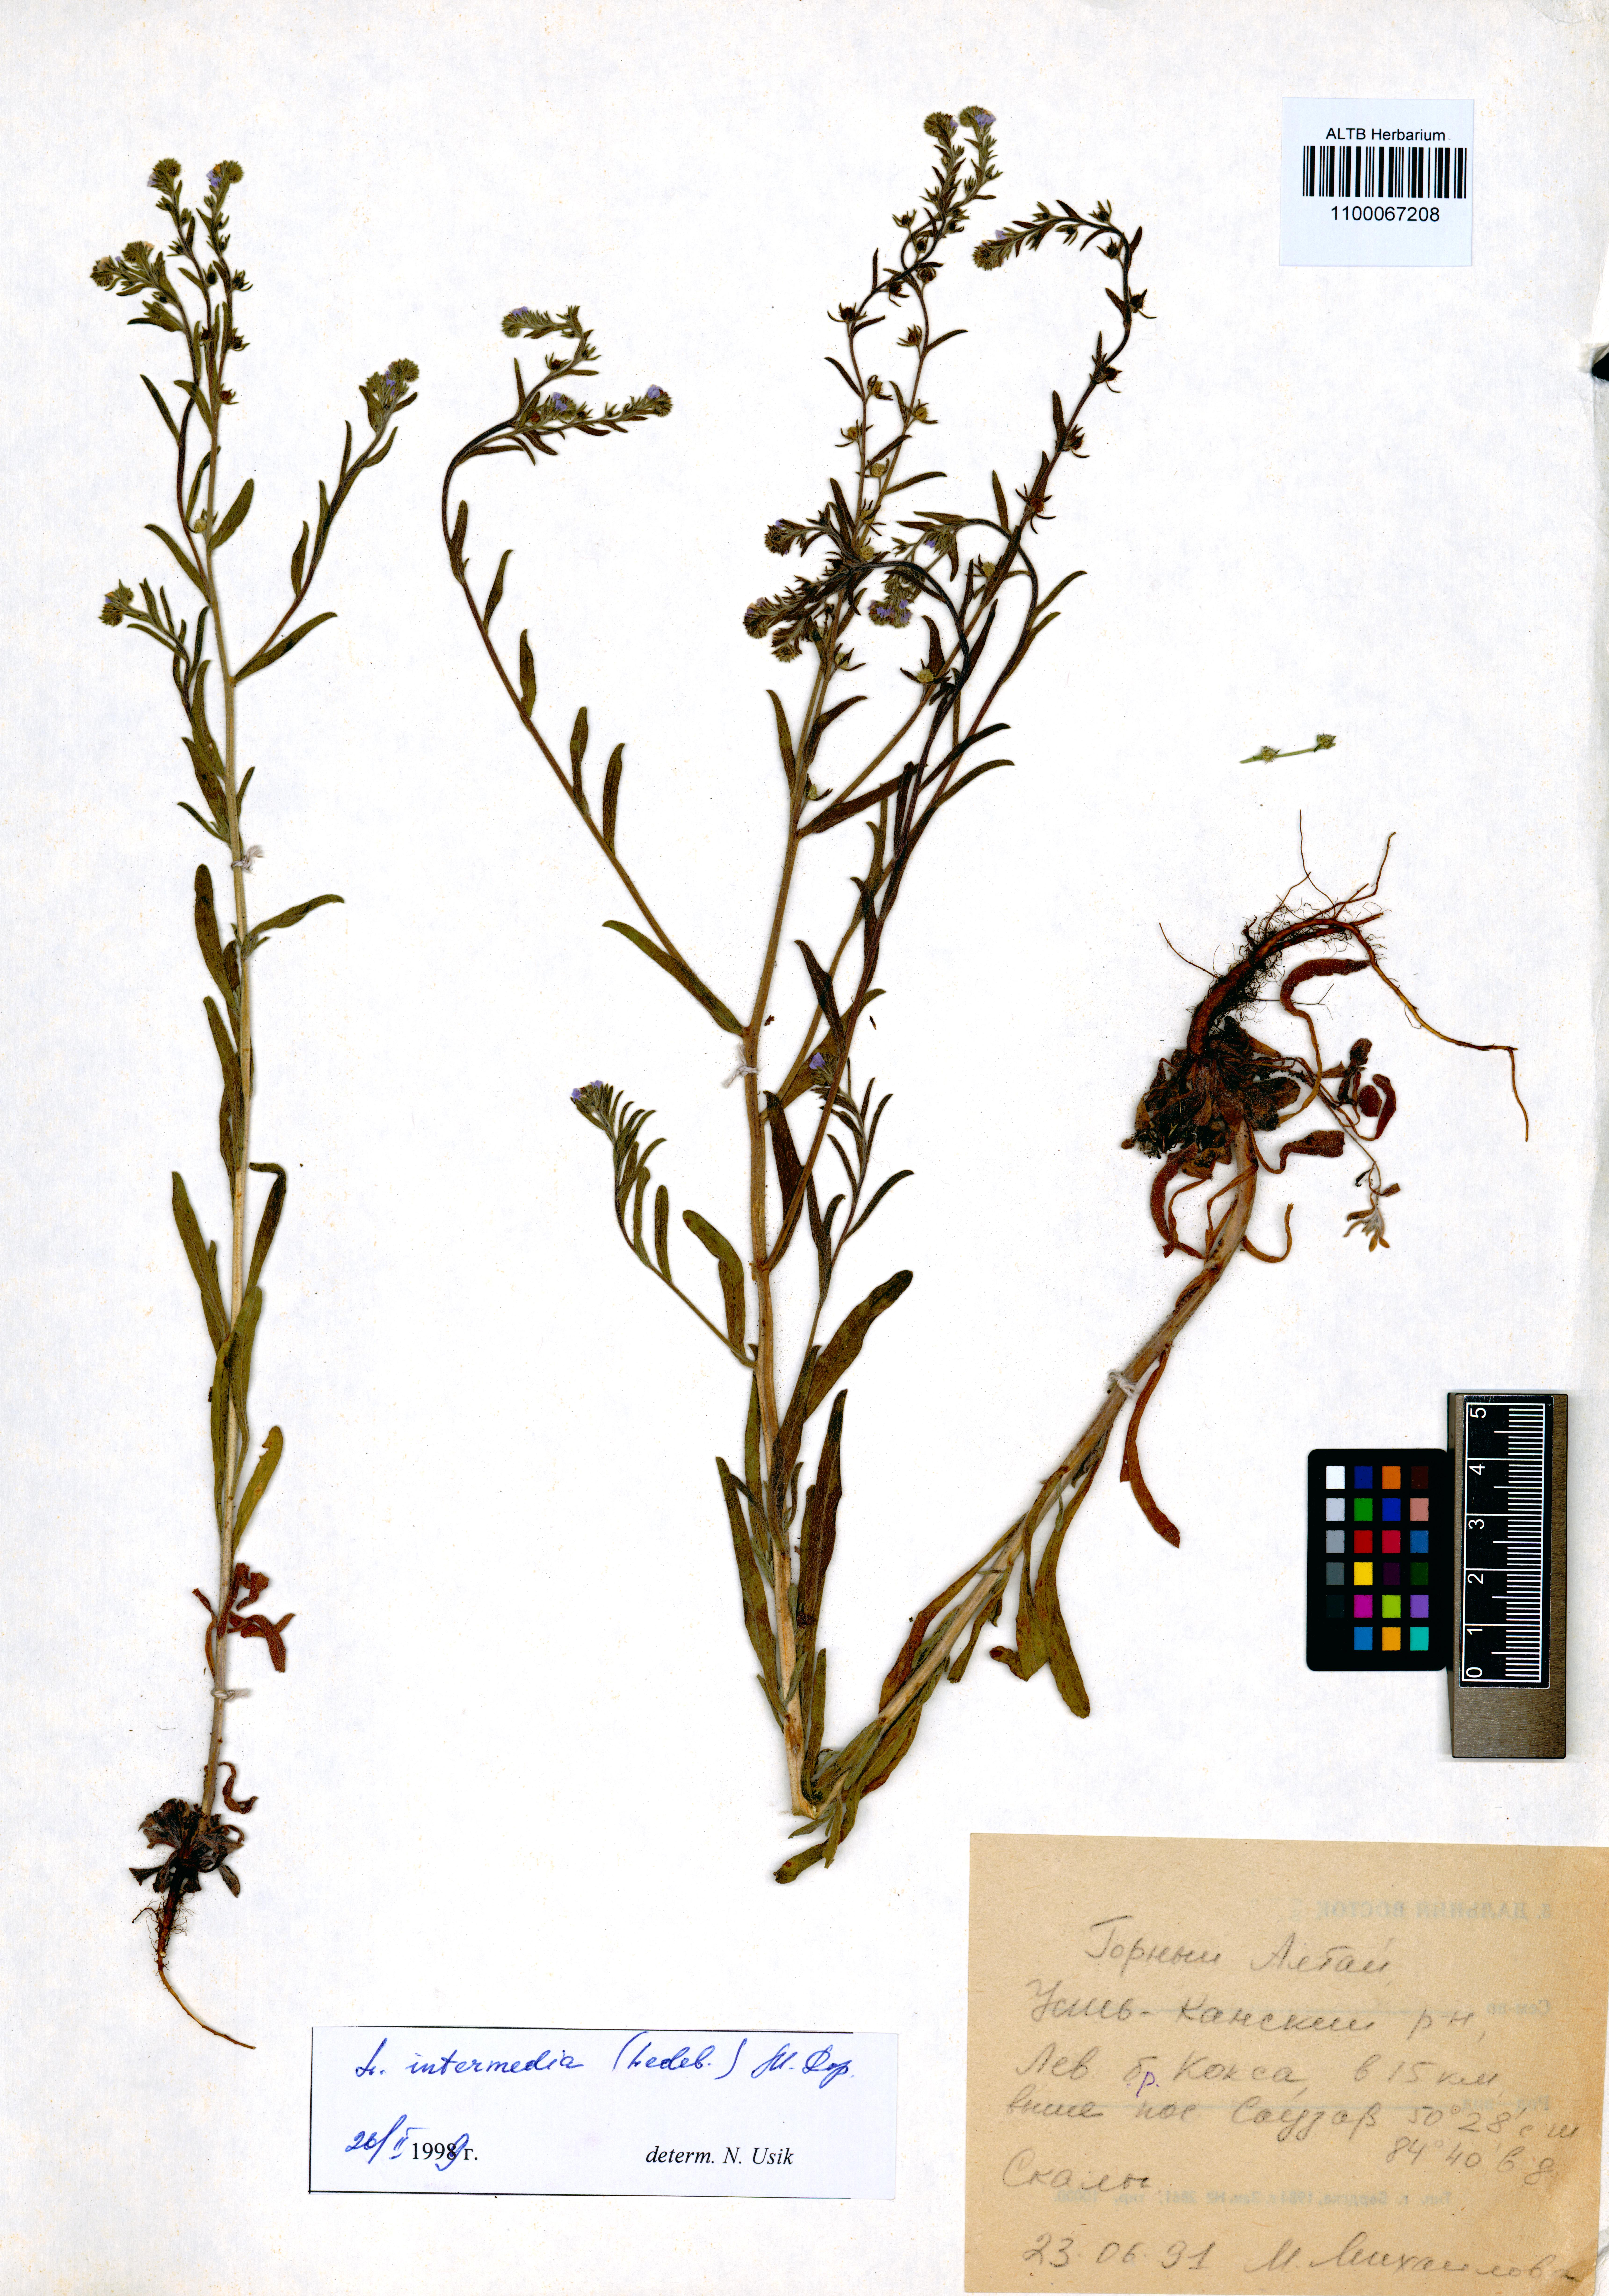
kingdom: Plantae
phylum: Tracheophyta
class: Magnoliopsida
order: Boraginales
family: Boraginaceae
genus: Lappula
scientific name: Lappula intermedia
